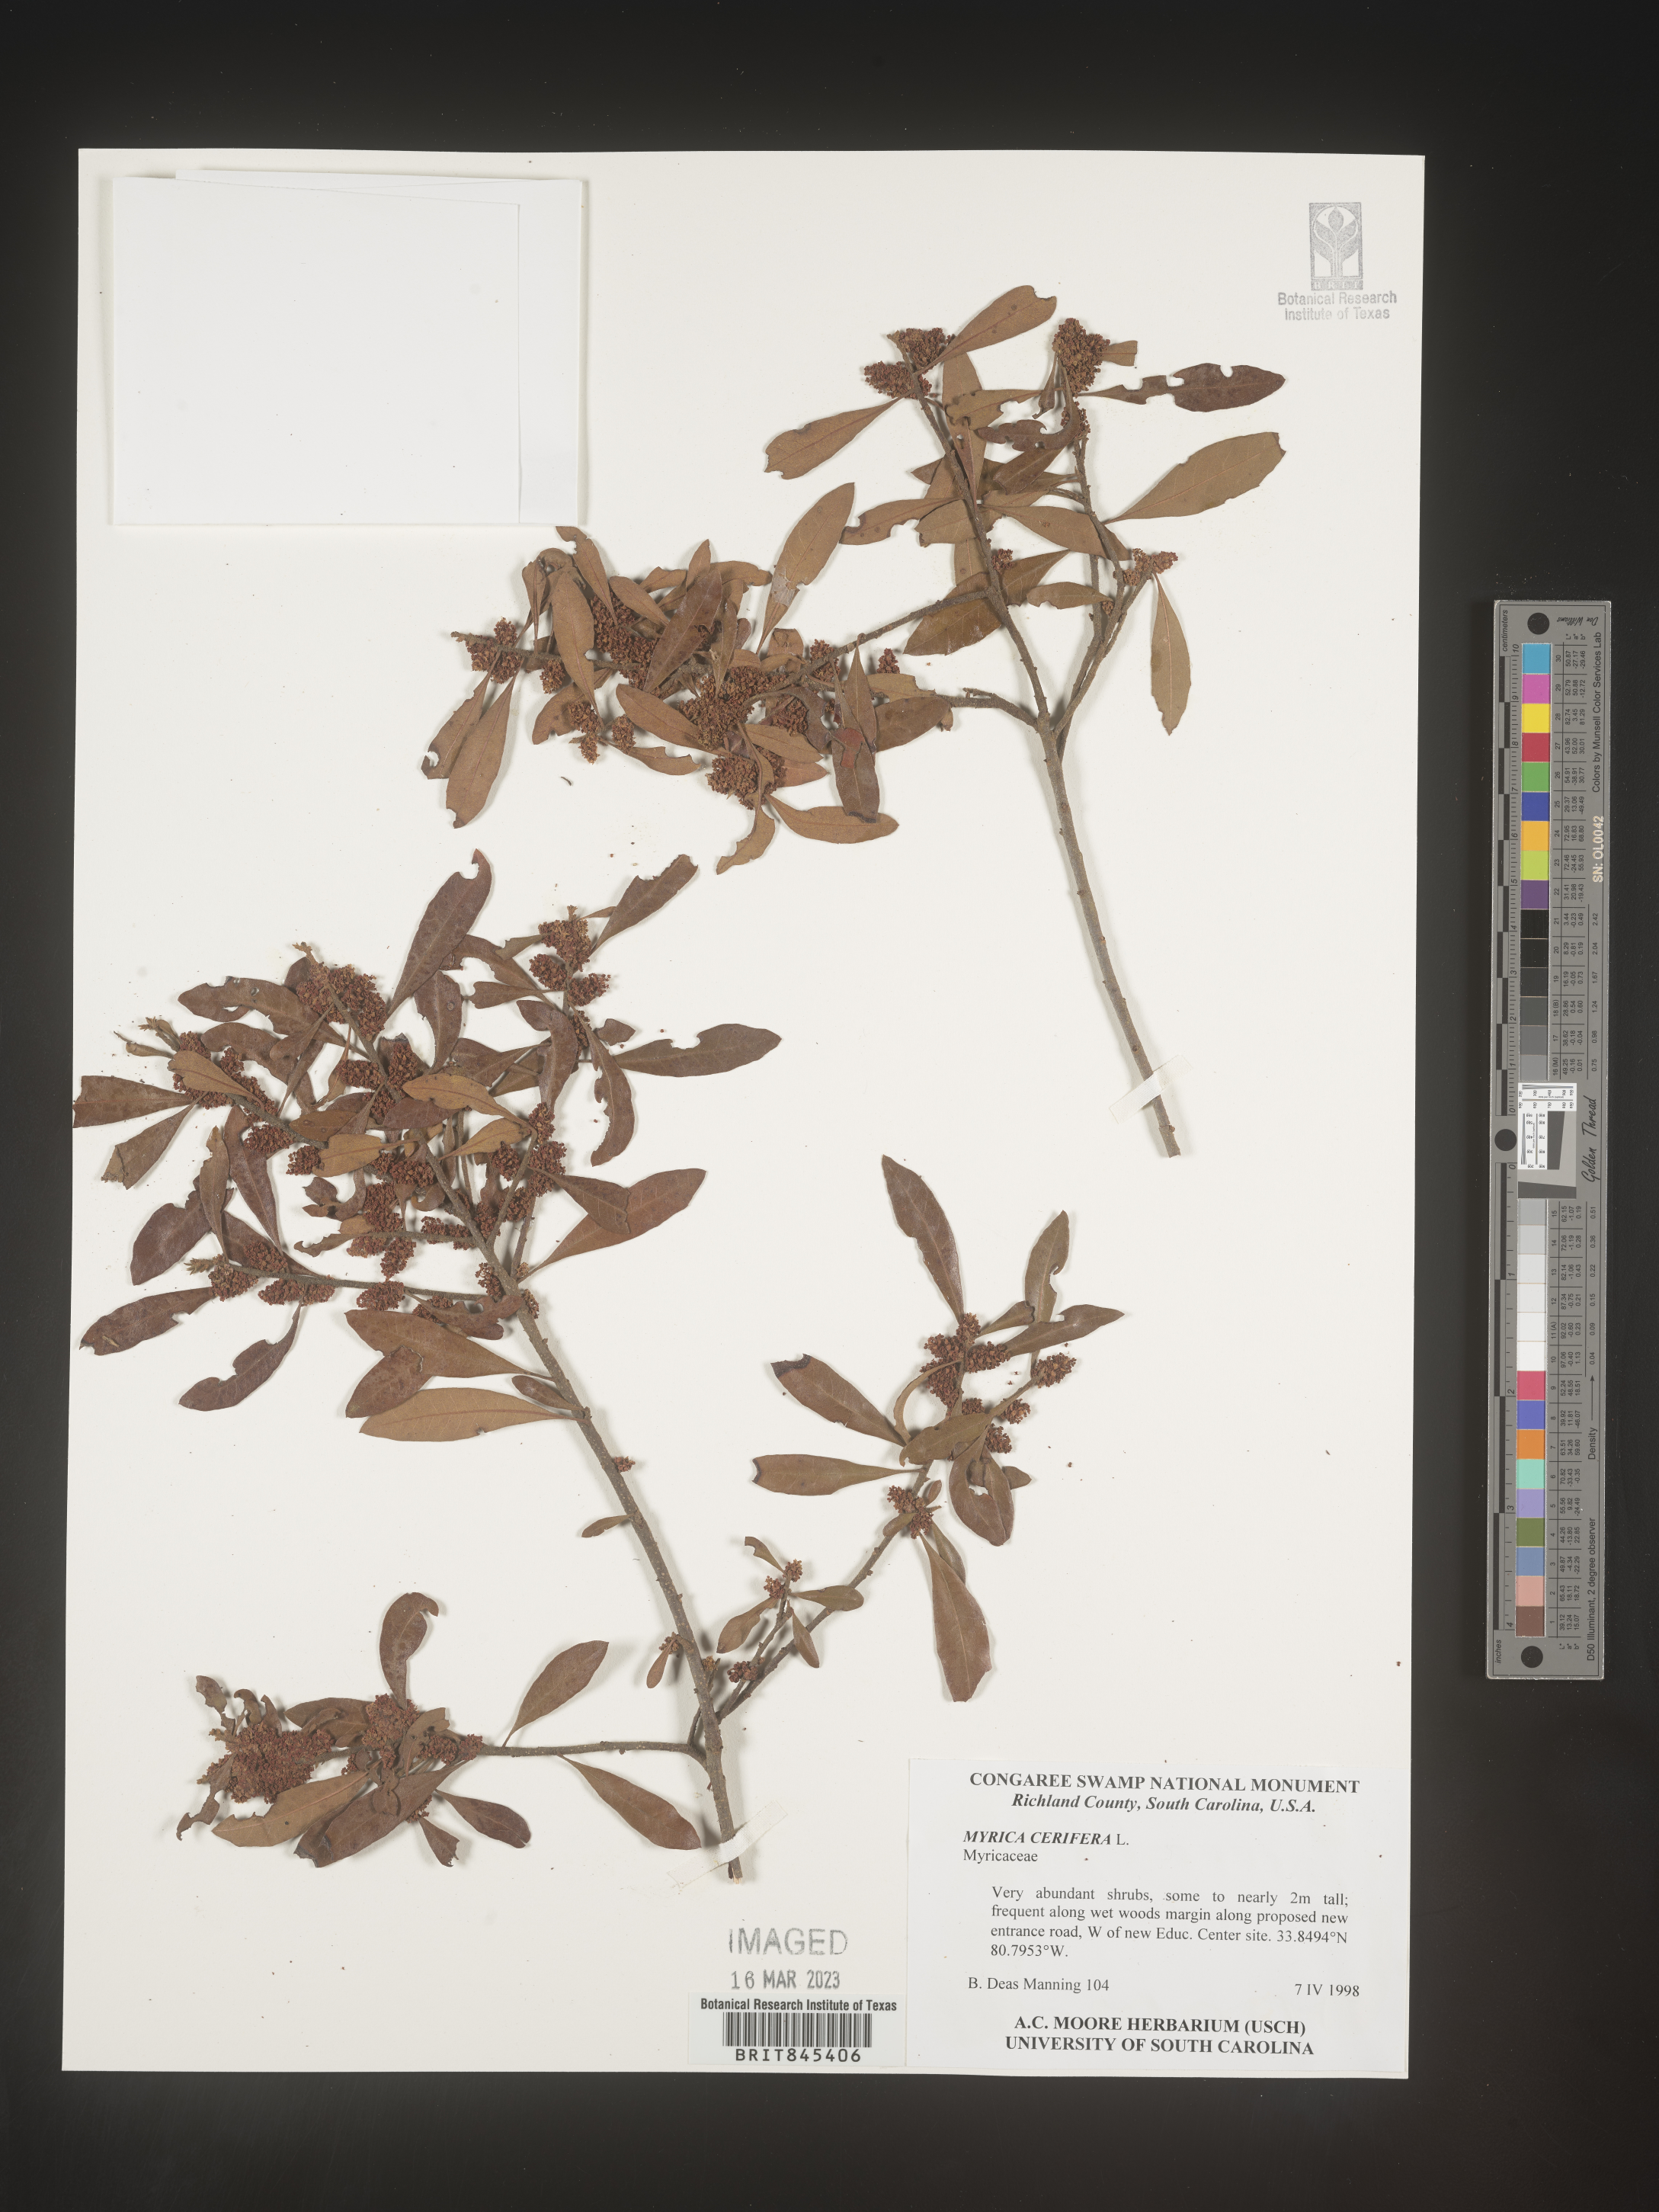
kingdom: Plantae
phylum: Tracheophyta
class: Magnoliopsida
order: Fagales
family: Myricaceae
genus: Morella
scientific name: Morella cerifera
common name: Wax myrtle
